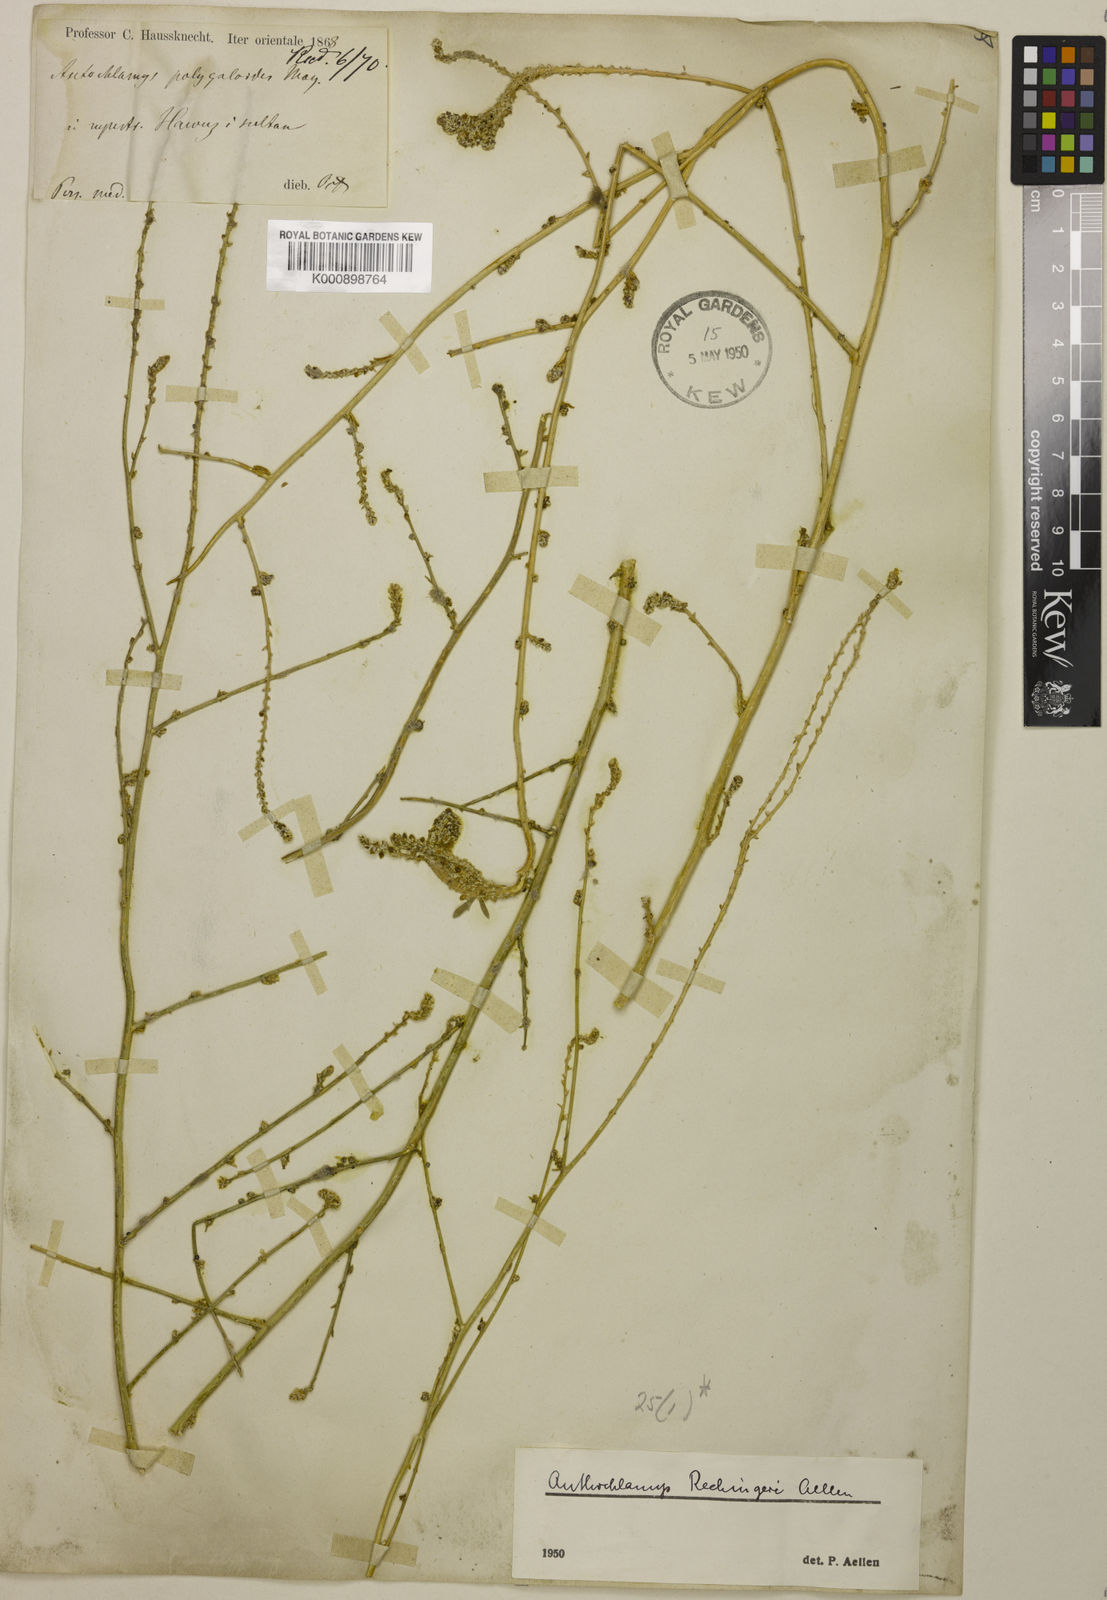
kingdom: Plantae
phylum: Tracheophyta
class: Magnoliopsida
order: Caryophyllales
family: Amaranthaceae
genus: Anthochlamys
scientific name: Anthochlamys polygaloides
